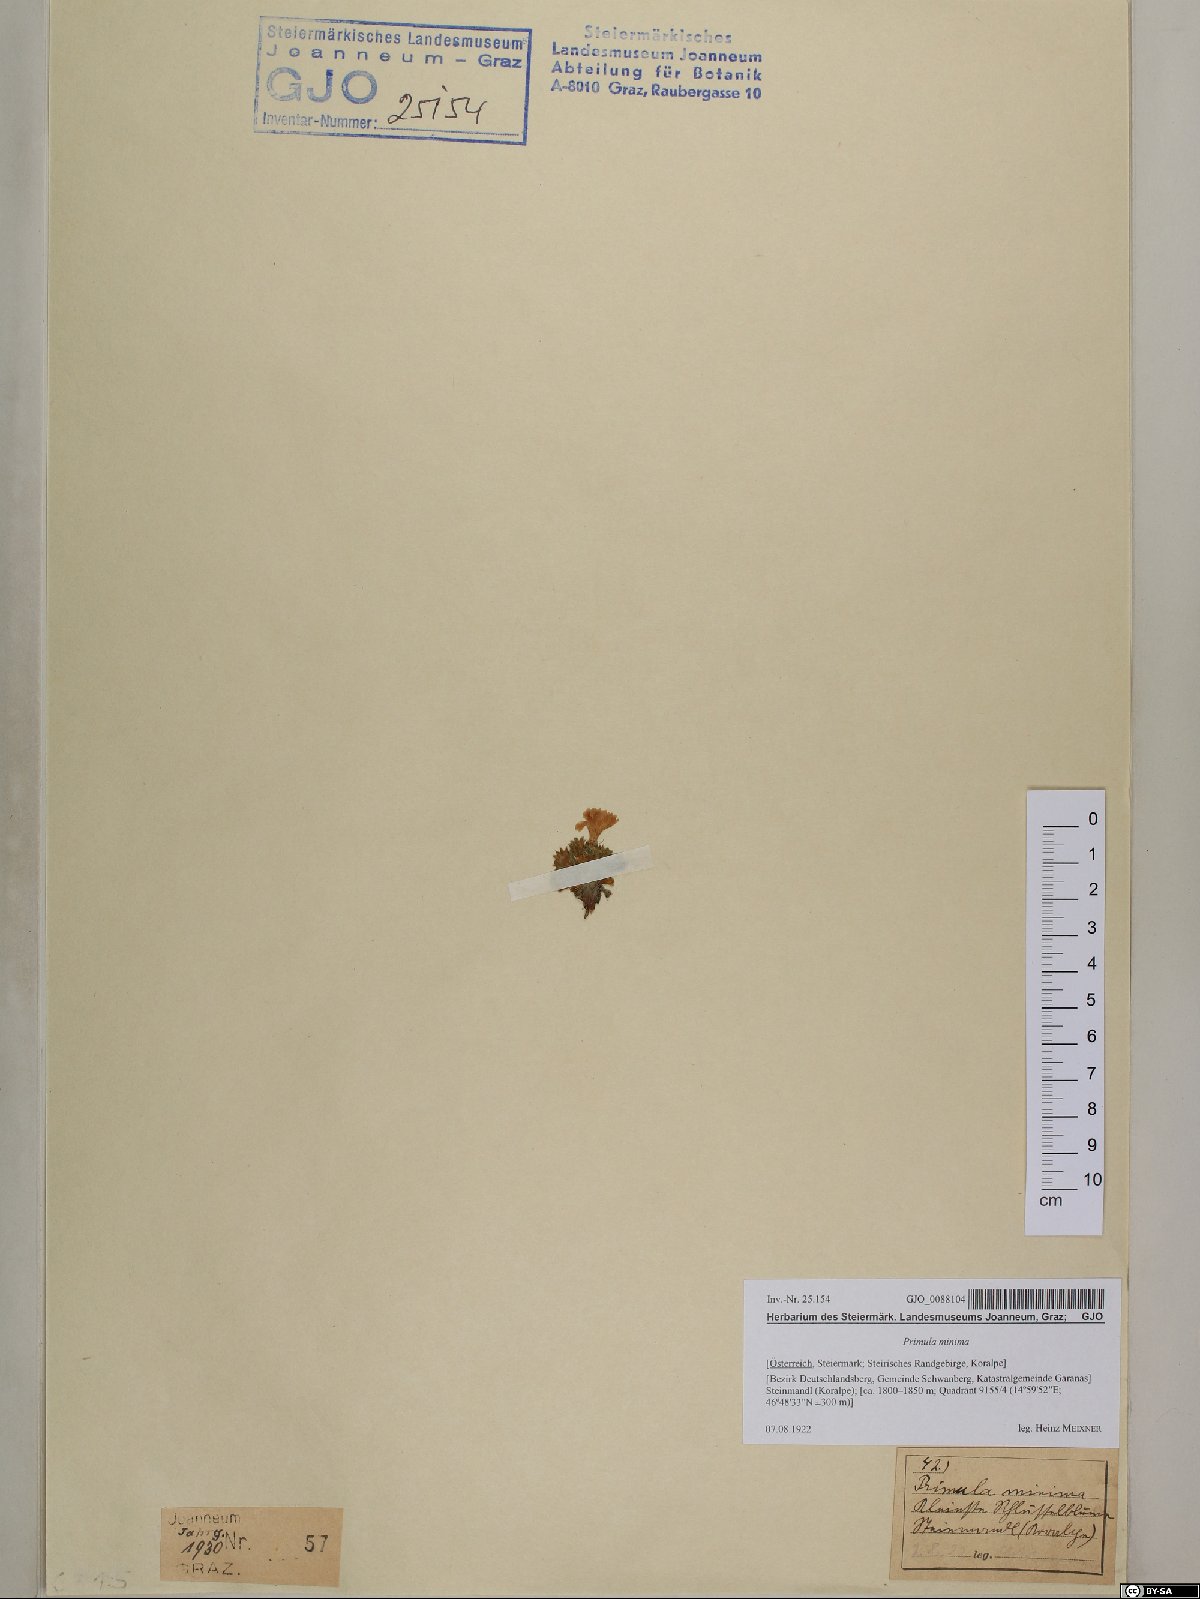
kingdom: Plantae
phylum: Tracheophyta
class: Magnoliopsida
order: Ericales
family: Primulaceae
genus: Primula
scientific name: Primula minima
